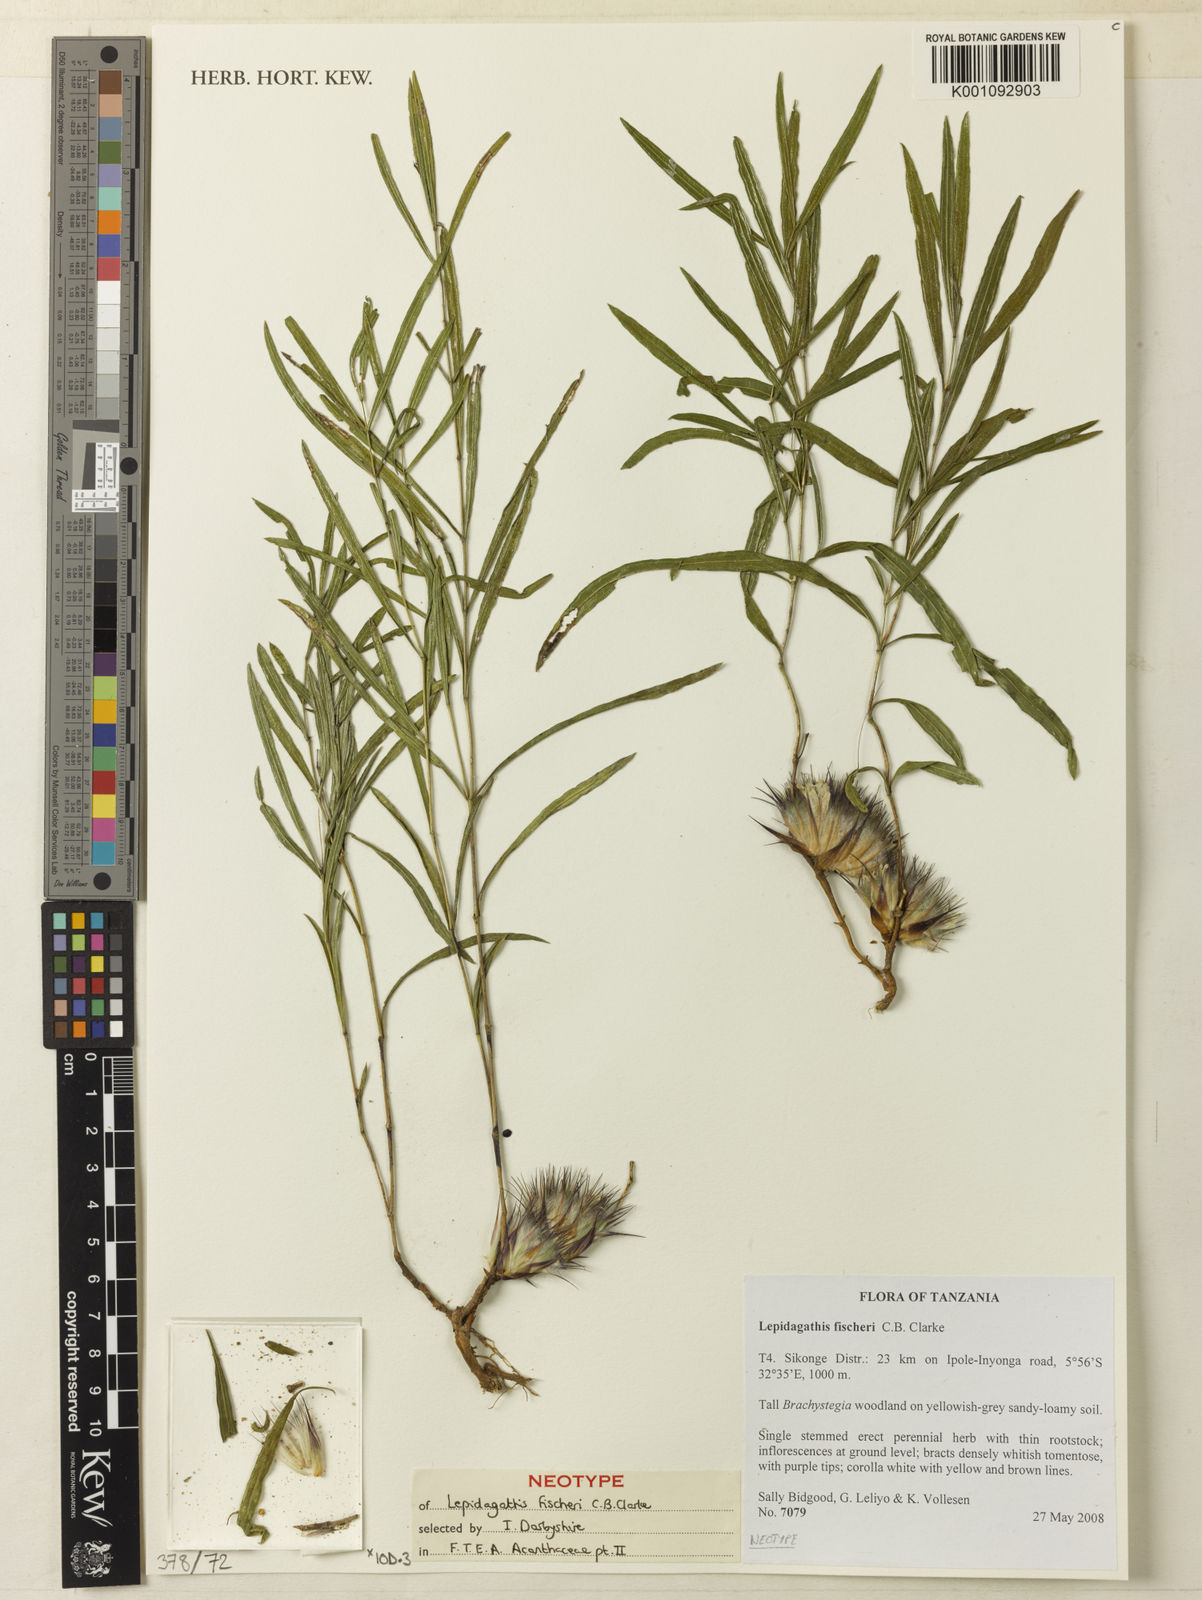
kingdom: Plantae
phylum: Tracheophyta
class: Magnoliopsida
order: Lamiales
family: Acanthaceae
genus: Lepidagathis
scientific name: Lepidagathis fischeri
